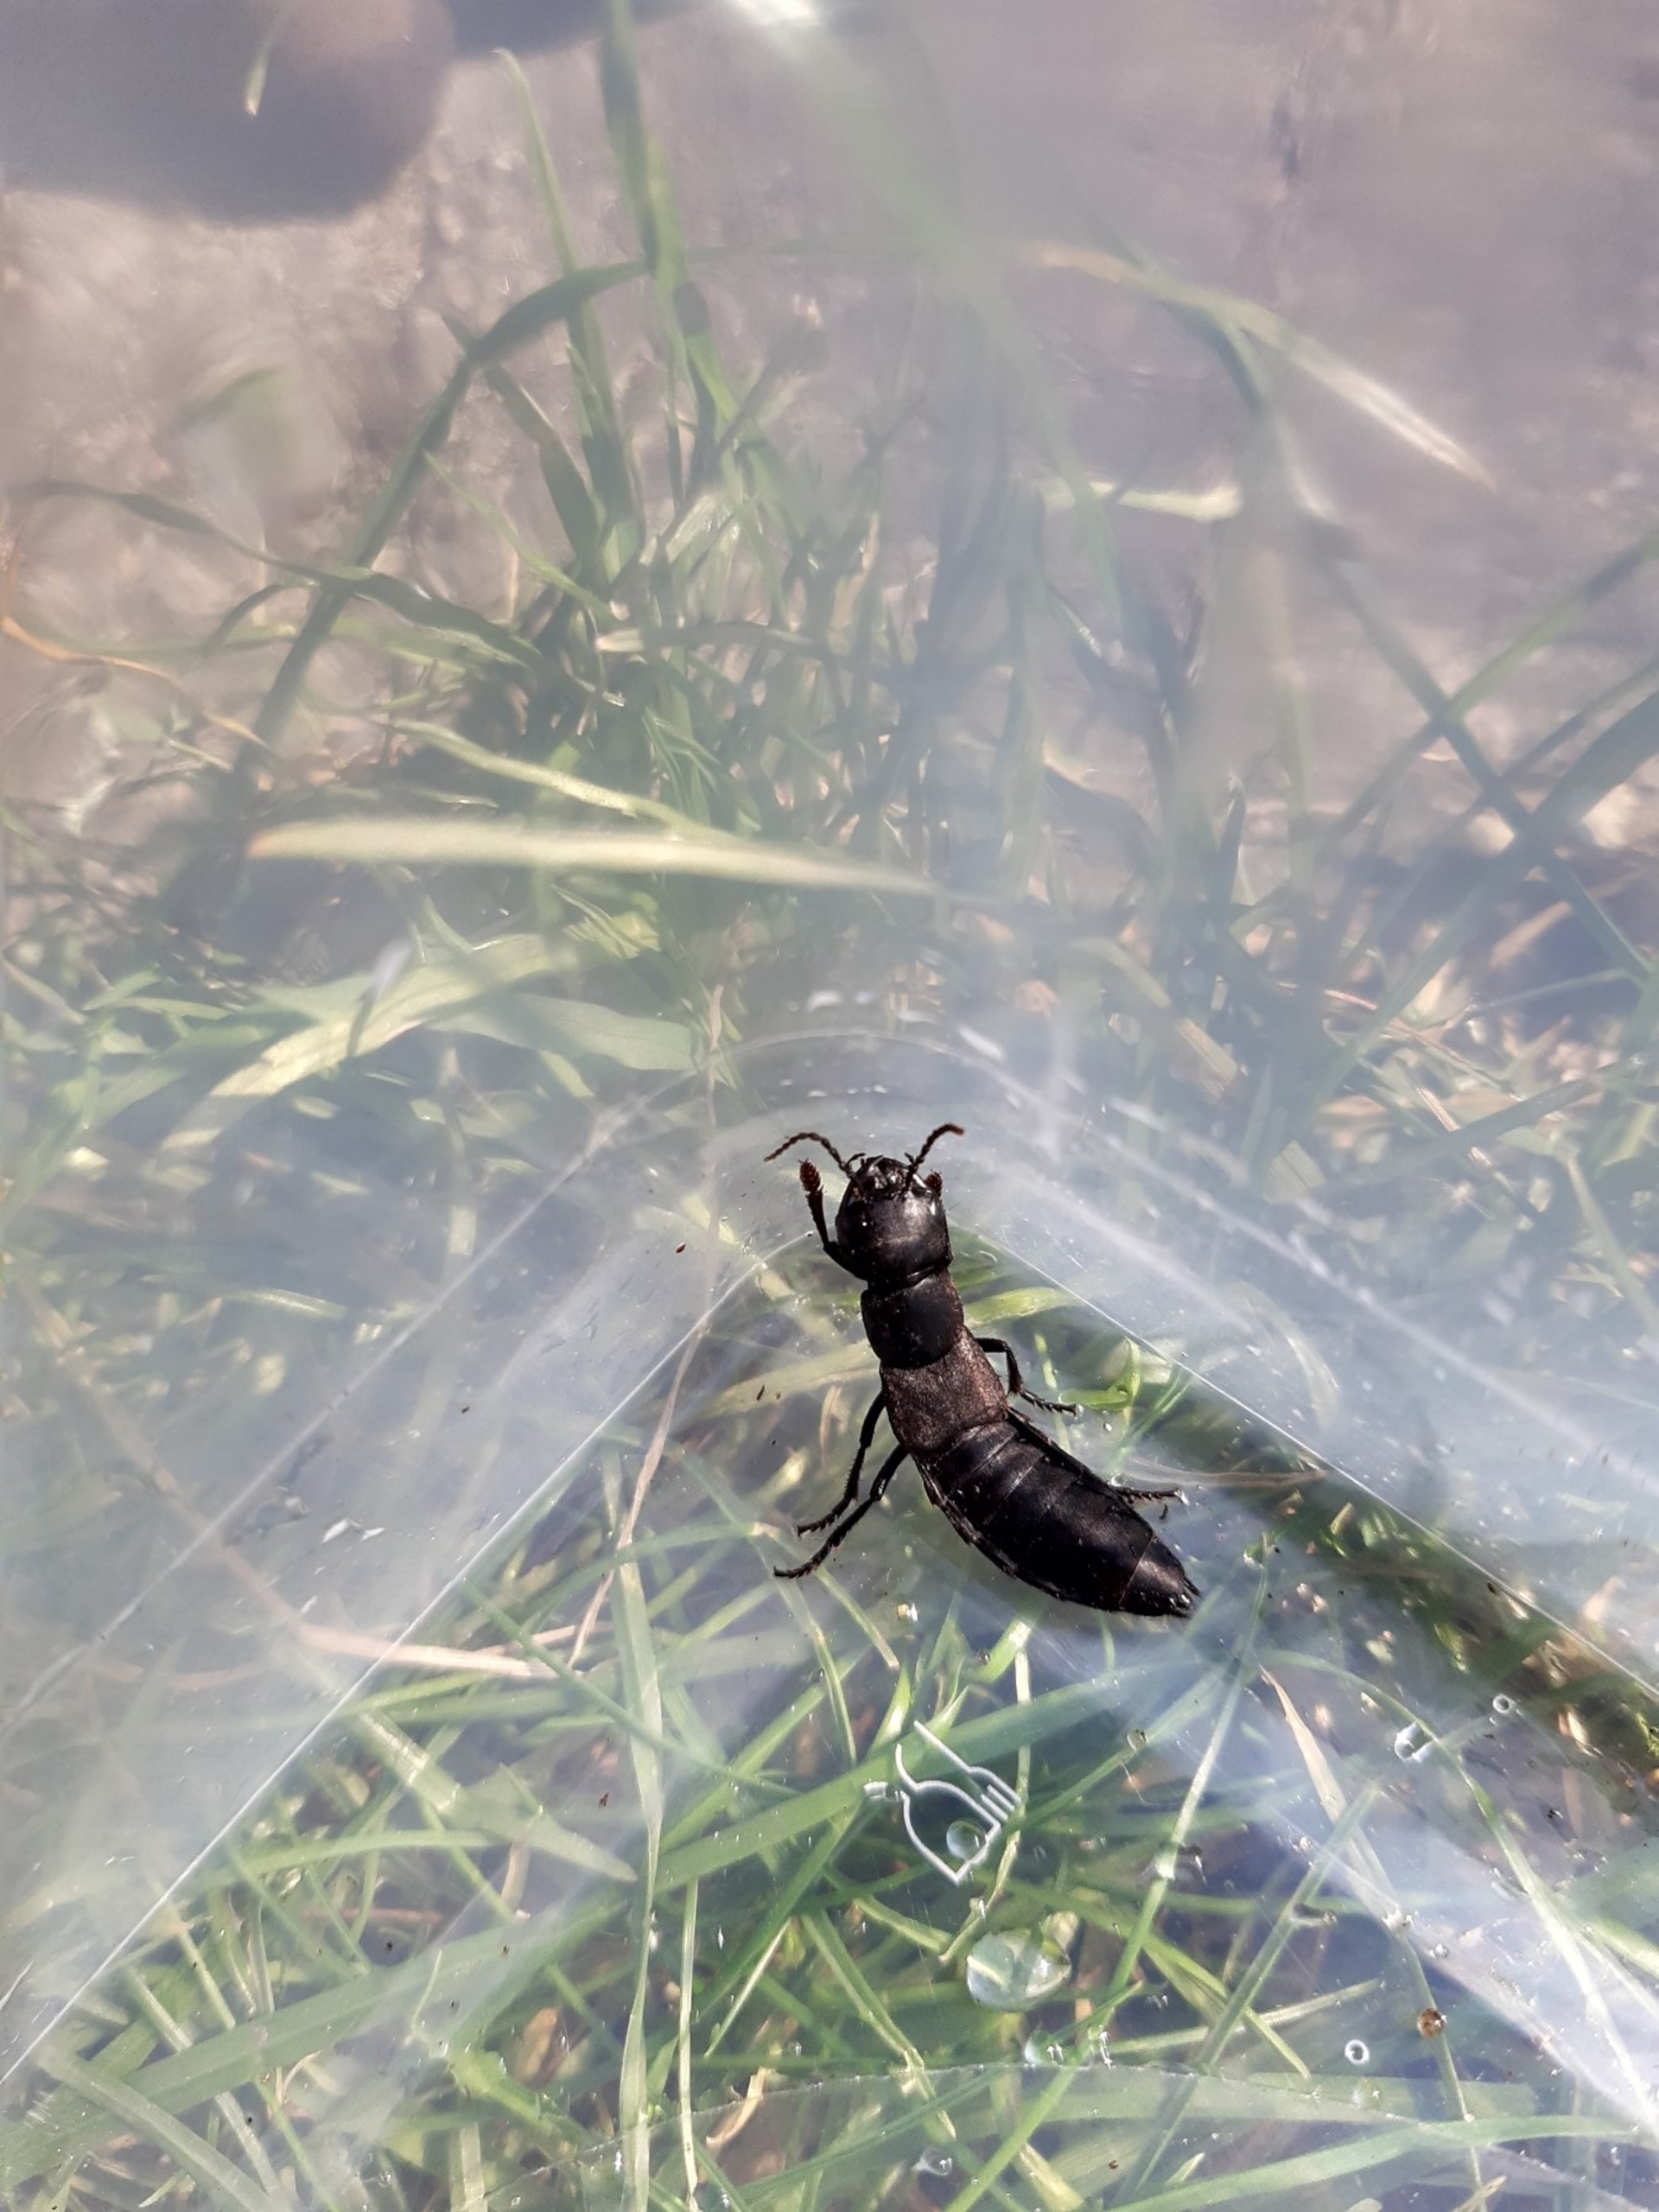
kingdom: Animalia
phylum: Arthropoda
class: Insecta
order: Coleoptera
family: Staphylinidae
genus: Ocypus
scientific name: Ocypus
